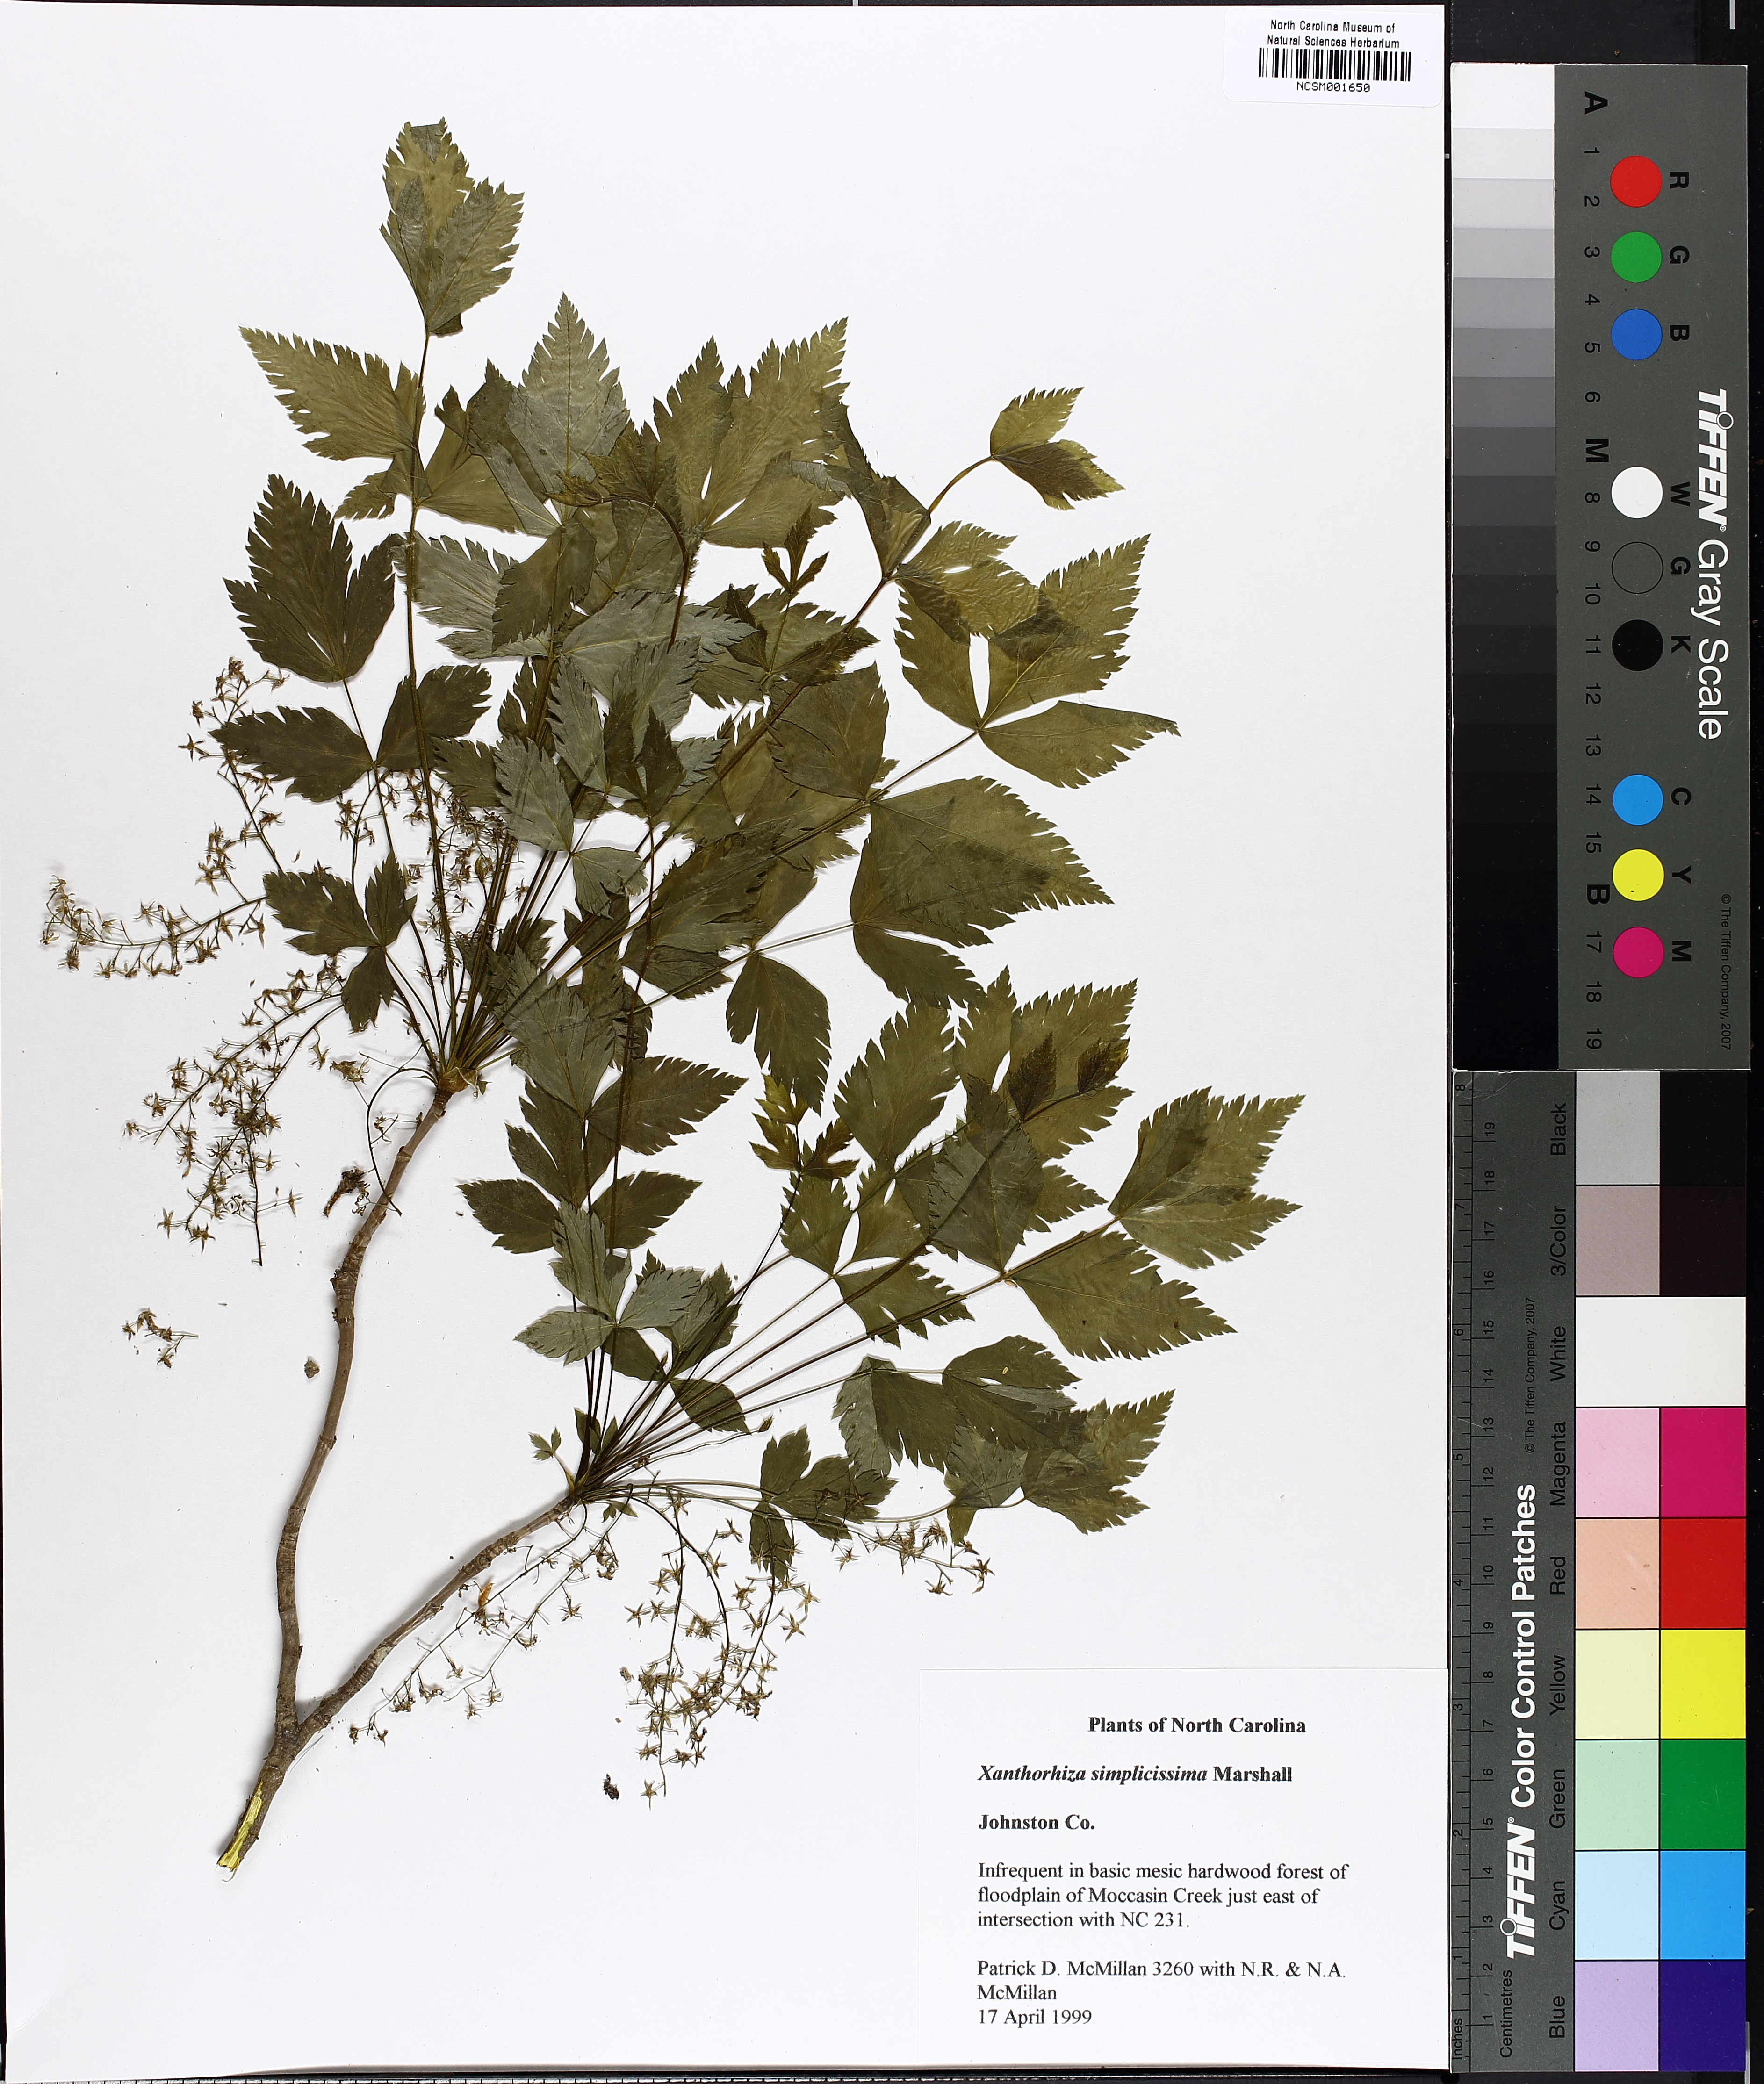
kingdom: Plantae
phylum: Tracheophyta
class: Magnoliopsida
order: Ranunculales
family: Ranunculaceae
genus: Xanthorhiza
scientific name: Xanthorhiza simplicissima
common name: Yellowroot
